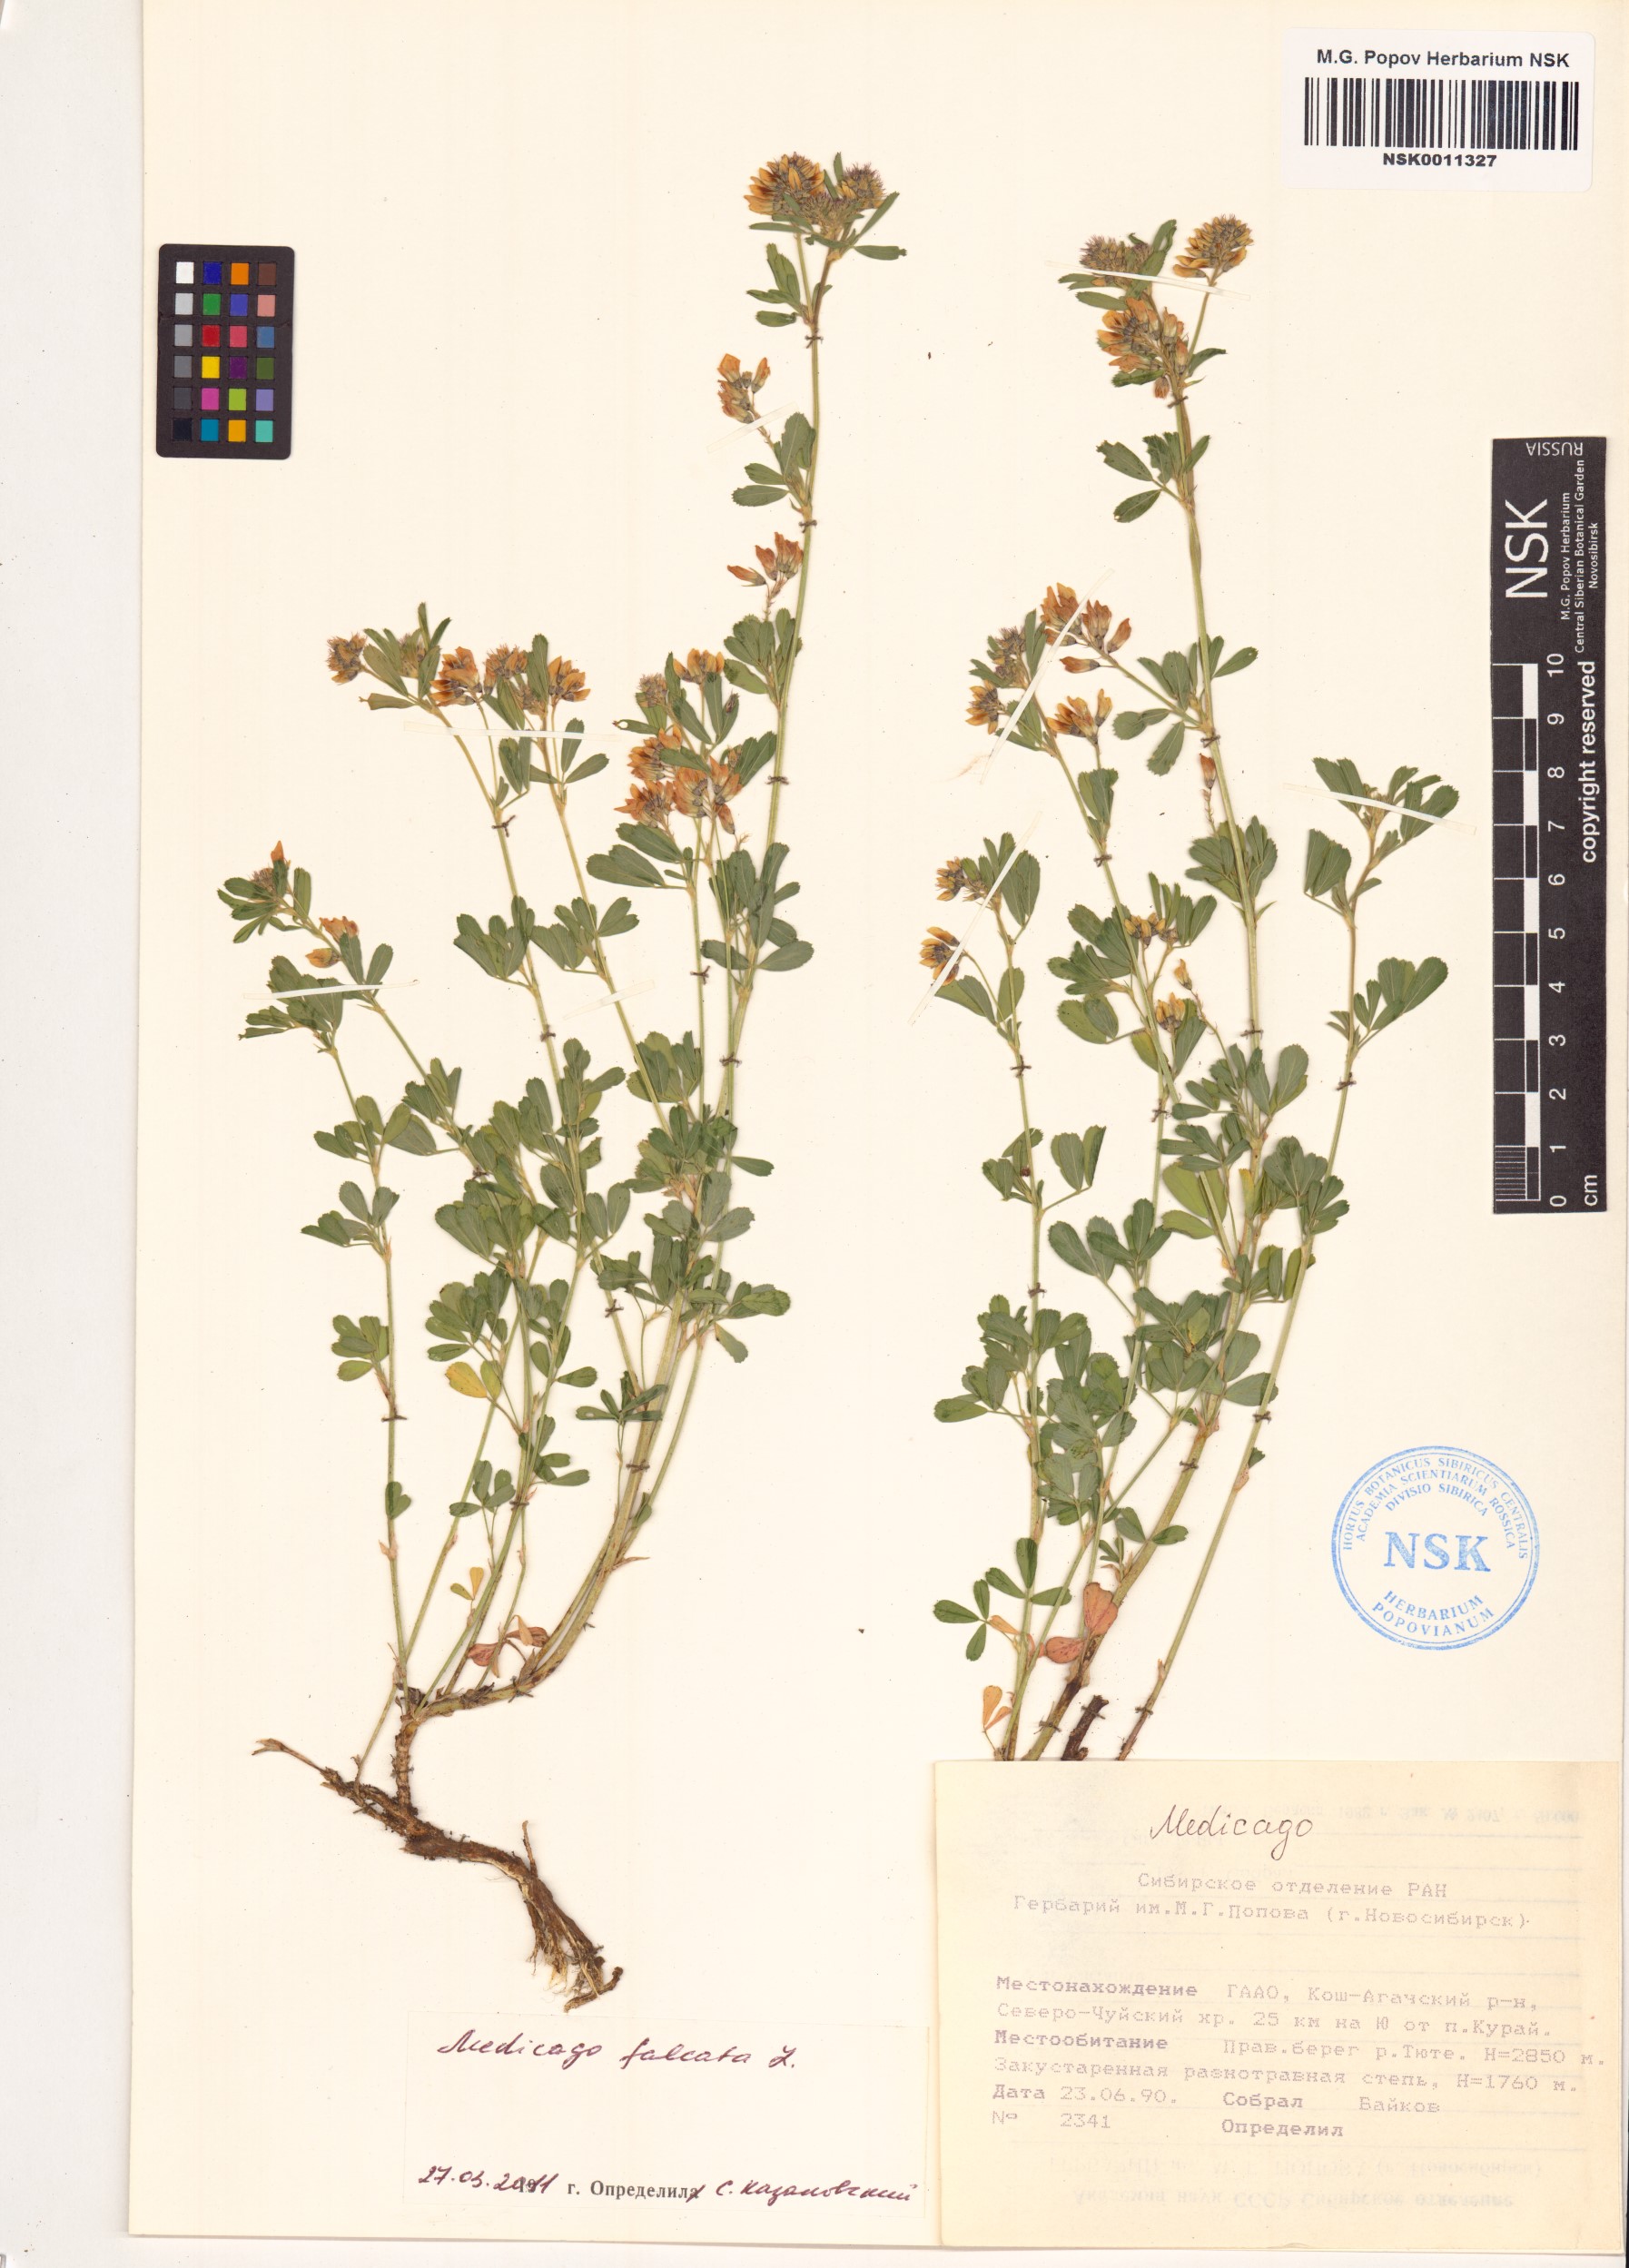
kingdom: Plantae
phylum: Tracheophyta
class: Magnoliopsida
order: Fabales
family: Fabaceae
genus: Medicago
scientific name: Medicago falcata
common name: Sickle medick
